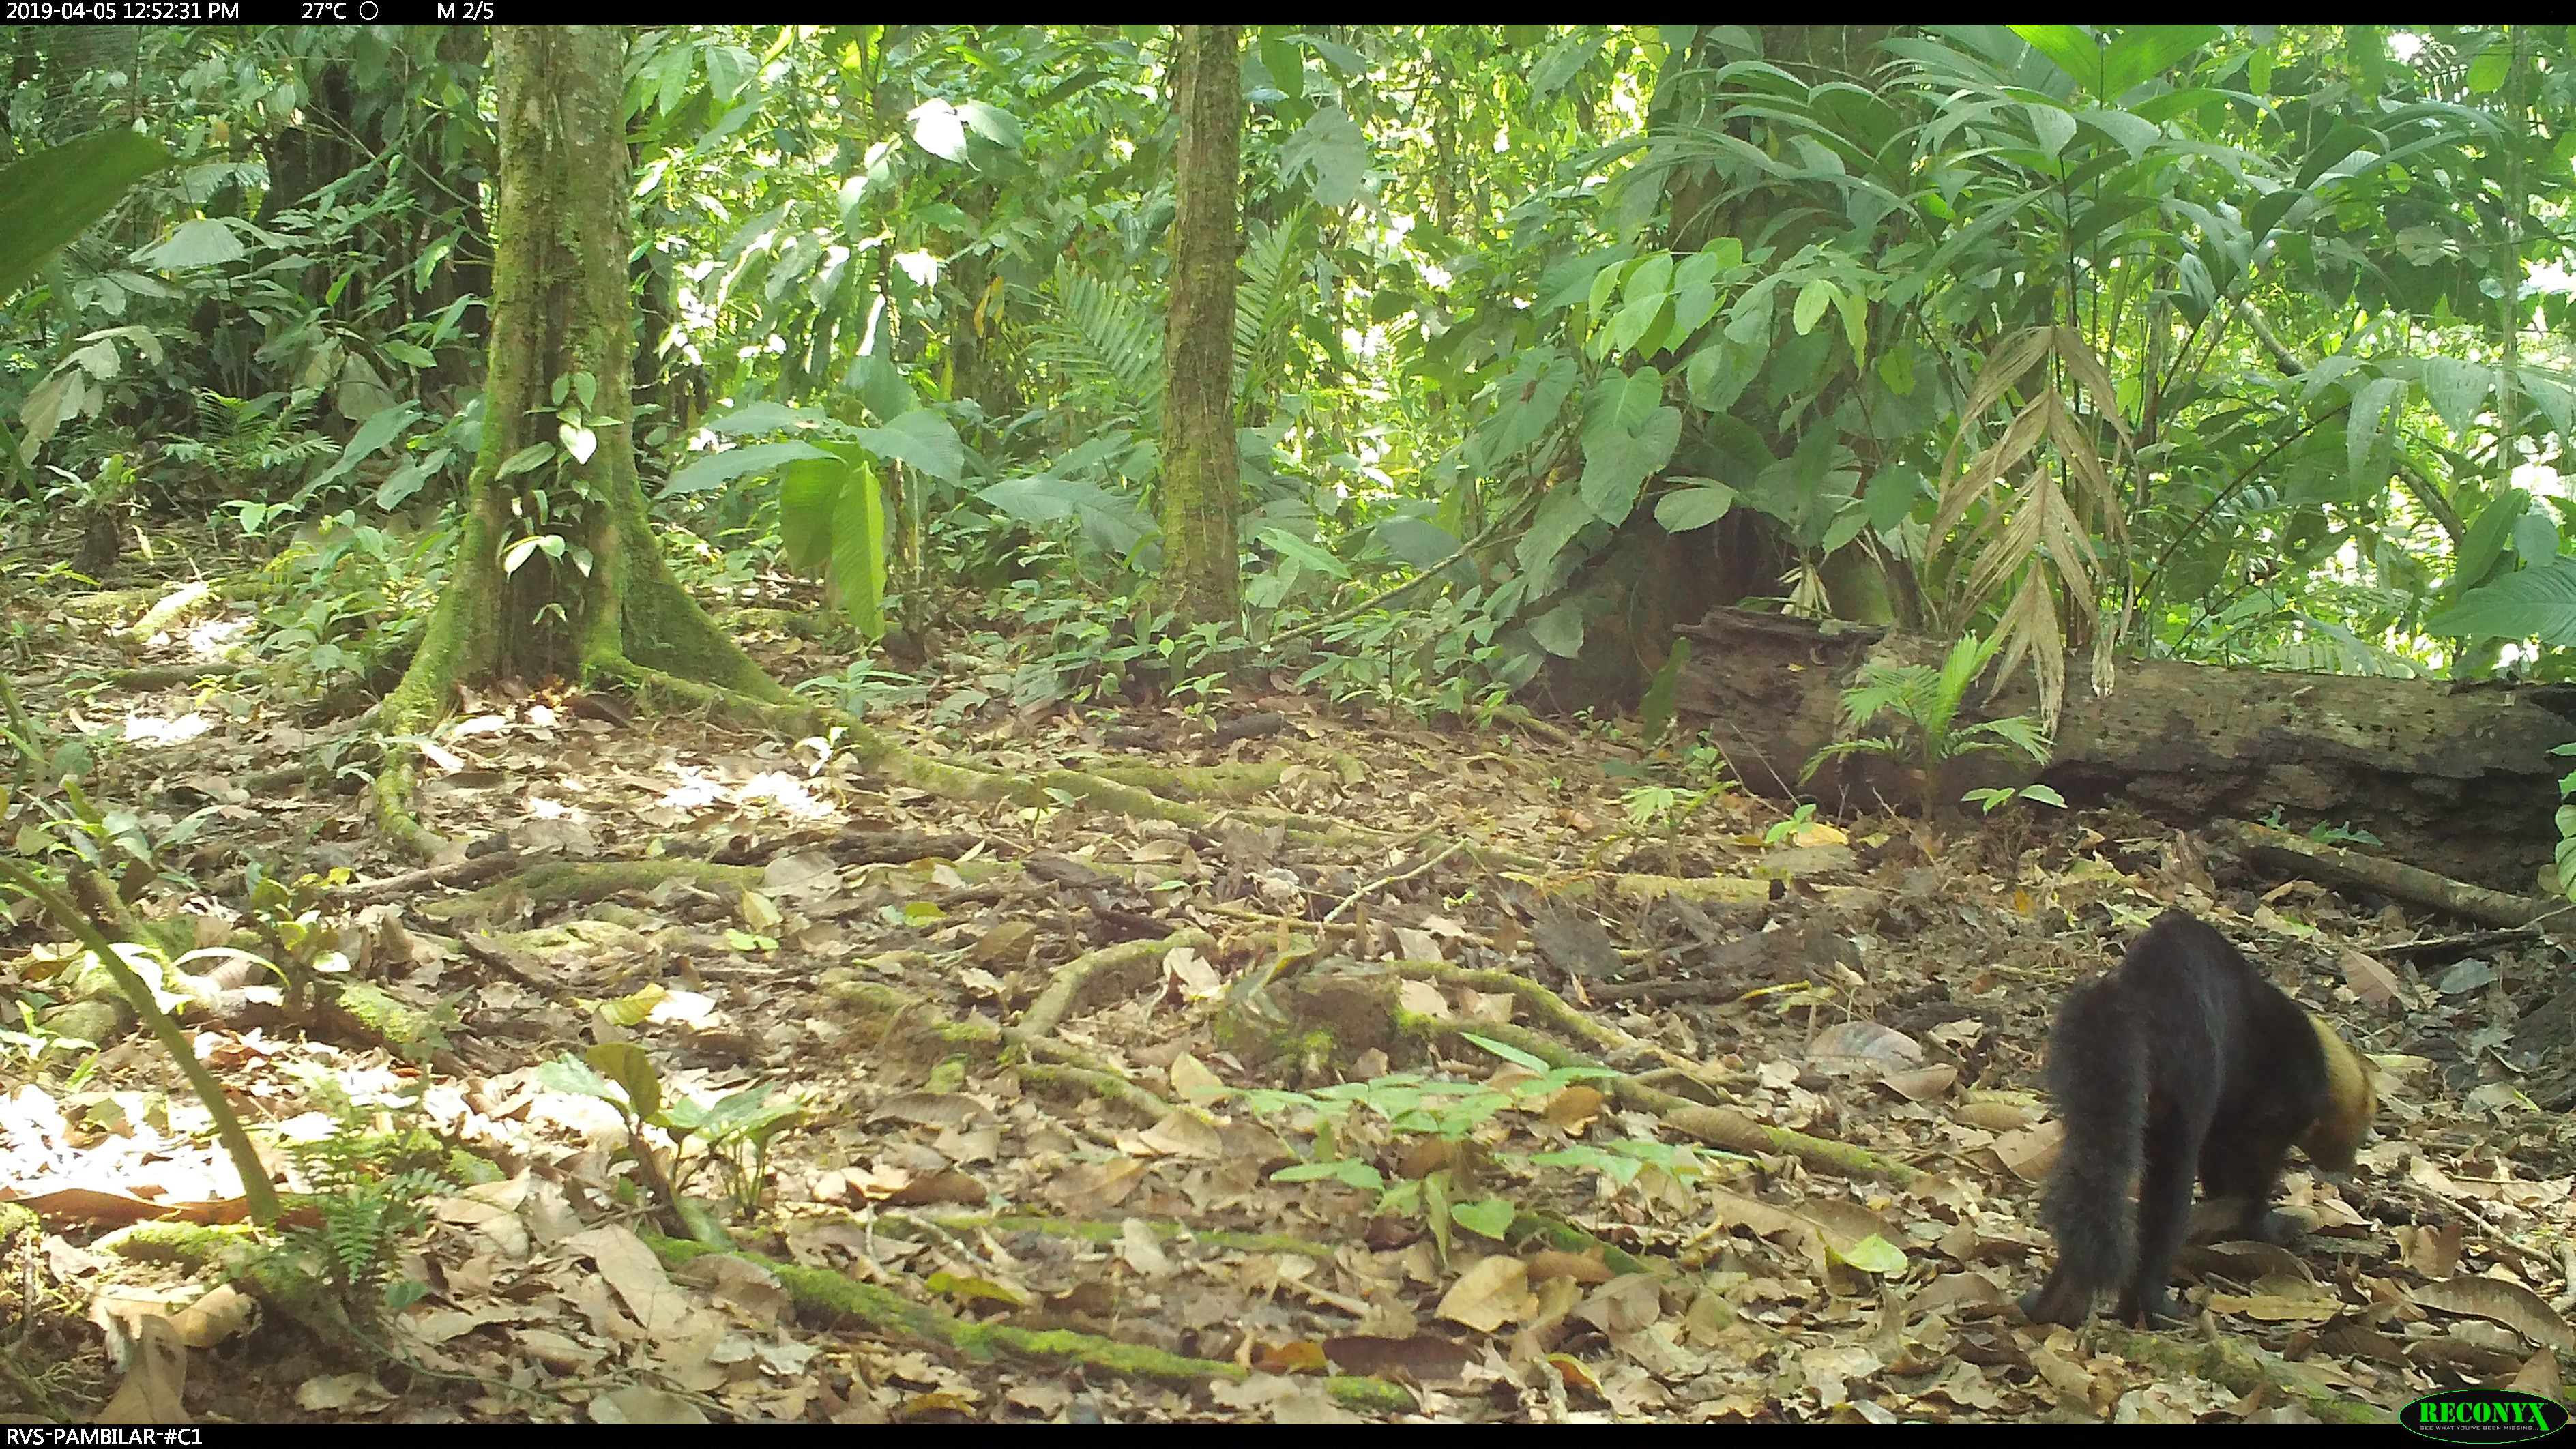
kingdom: Animalia
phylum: Chordata
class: Mammalia
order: Carnivora
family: Mustelidae
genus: Eira
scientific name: Eira barbara
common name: Tayra
